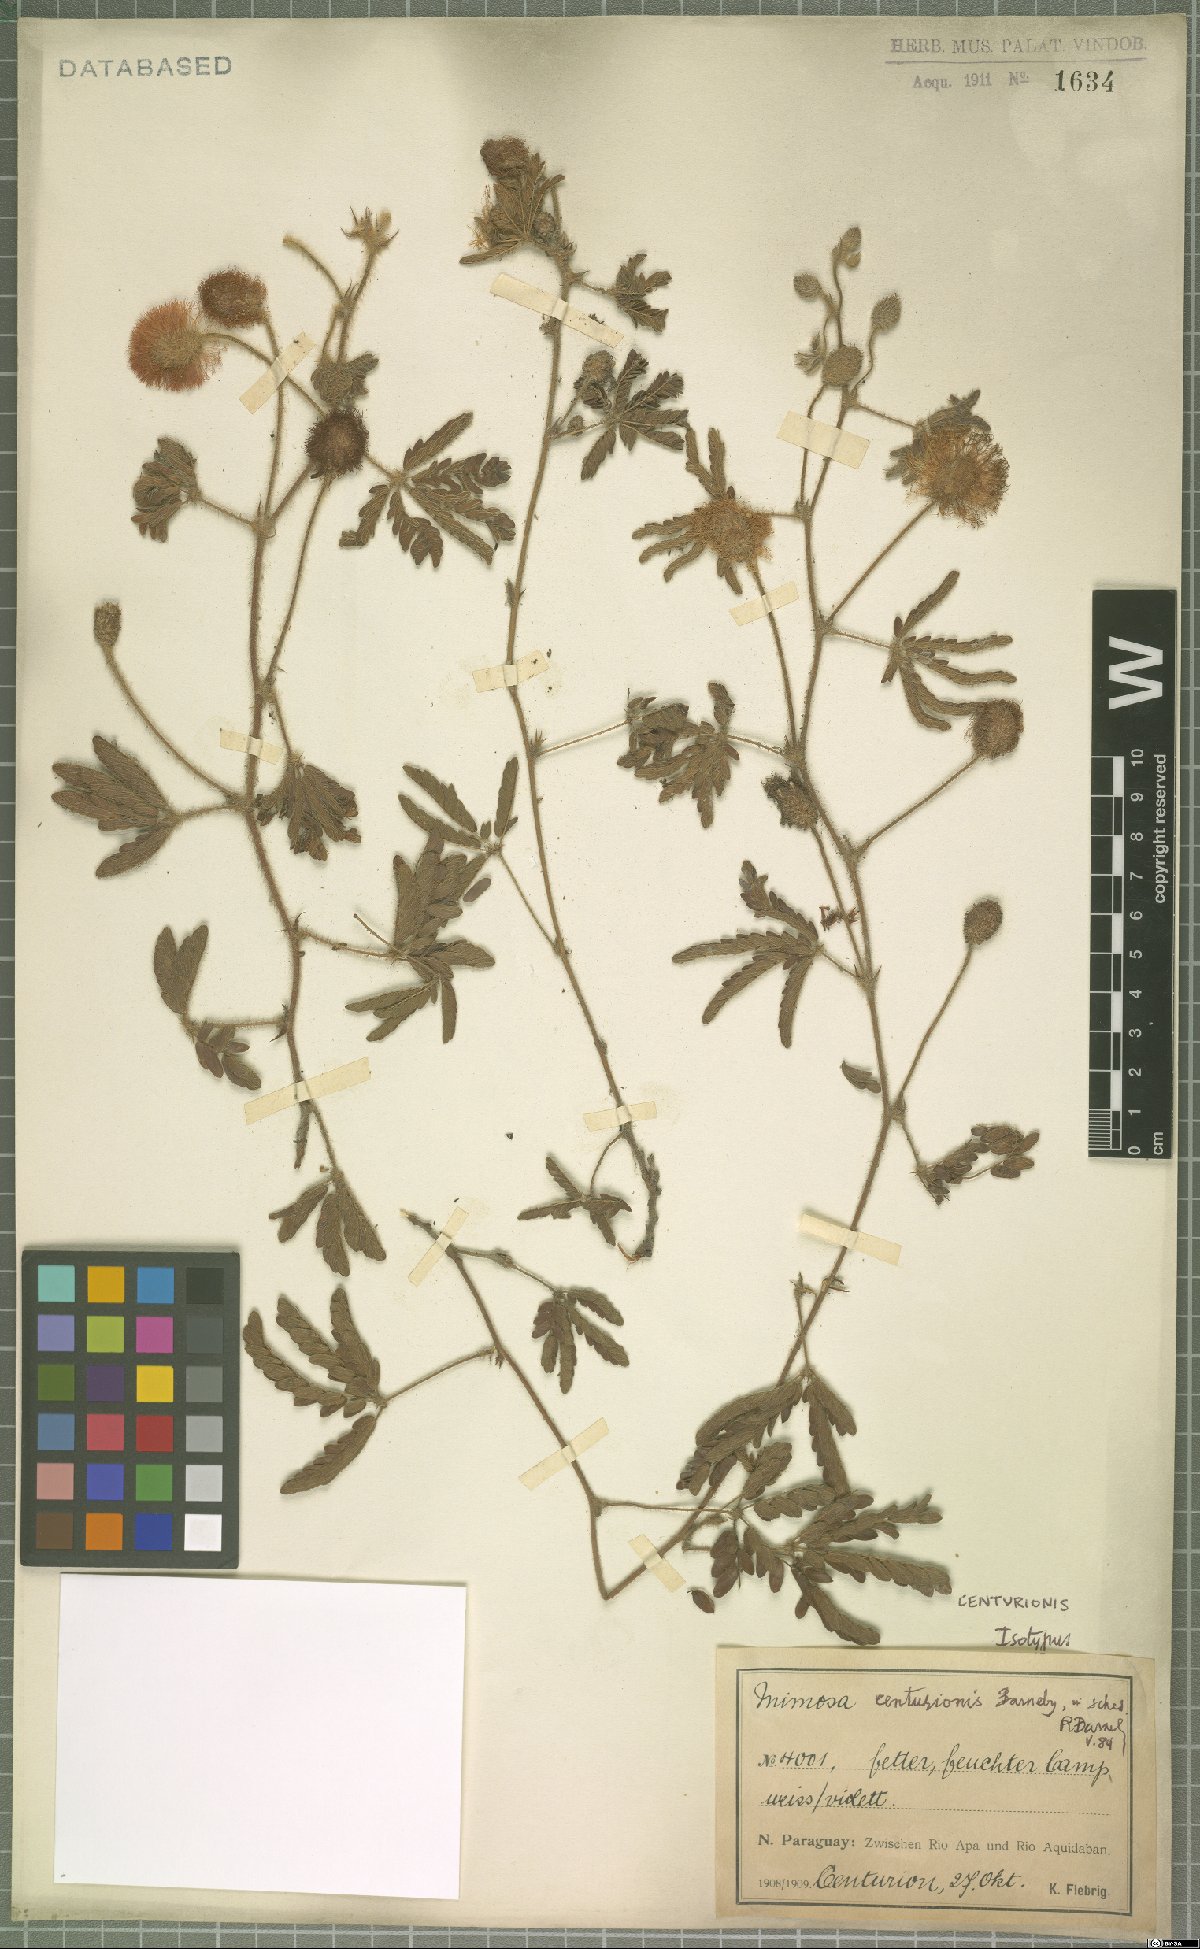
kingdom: Plantae
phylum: Tracheophyta
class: Magnoliopsida
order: Fabales
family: Fabaceae
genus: Mimosa
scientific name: Mimosa centurionis
